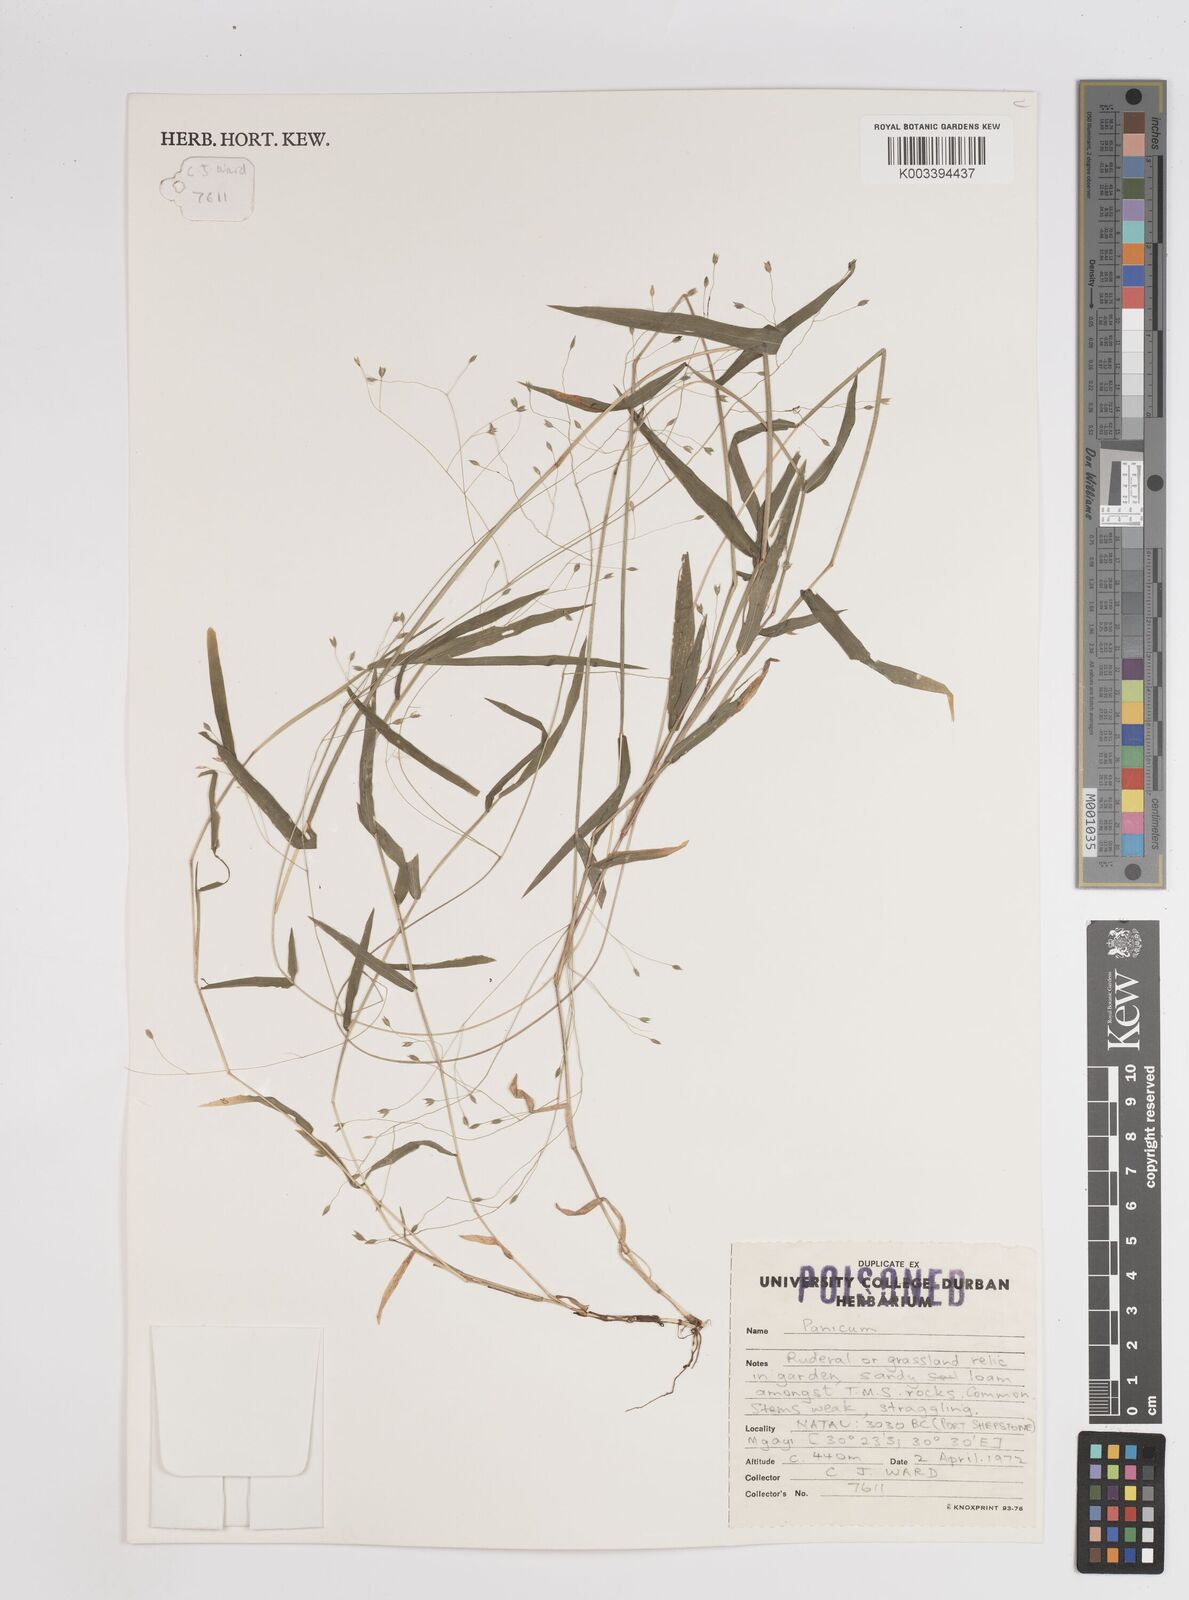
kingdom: Plantae
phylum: Tracheophyta
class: Liliopsida
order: Poales
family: Poaceae
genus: Panicum
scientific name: Panicum
